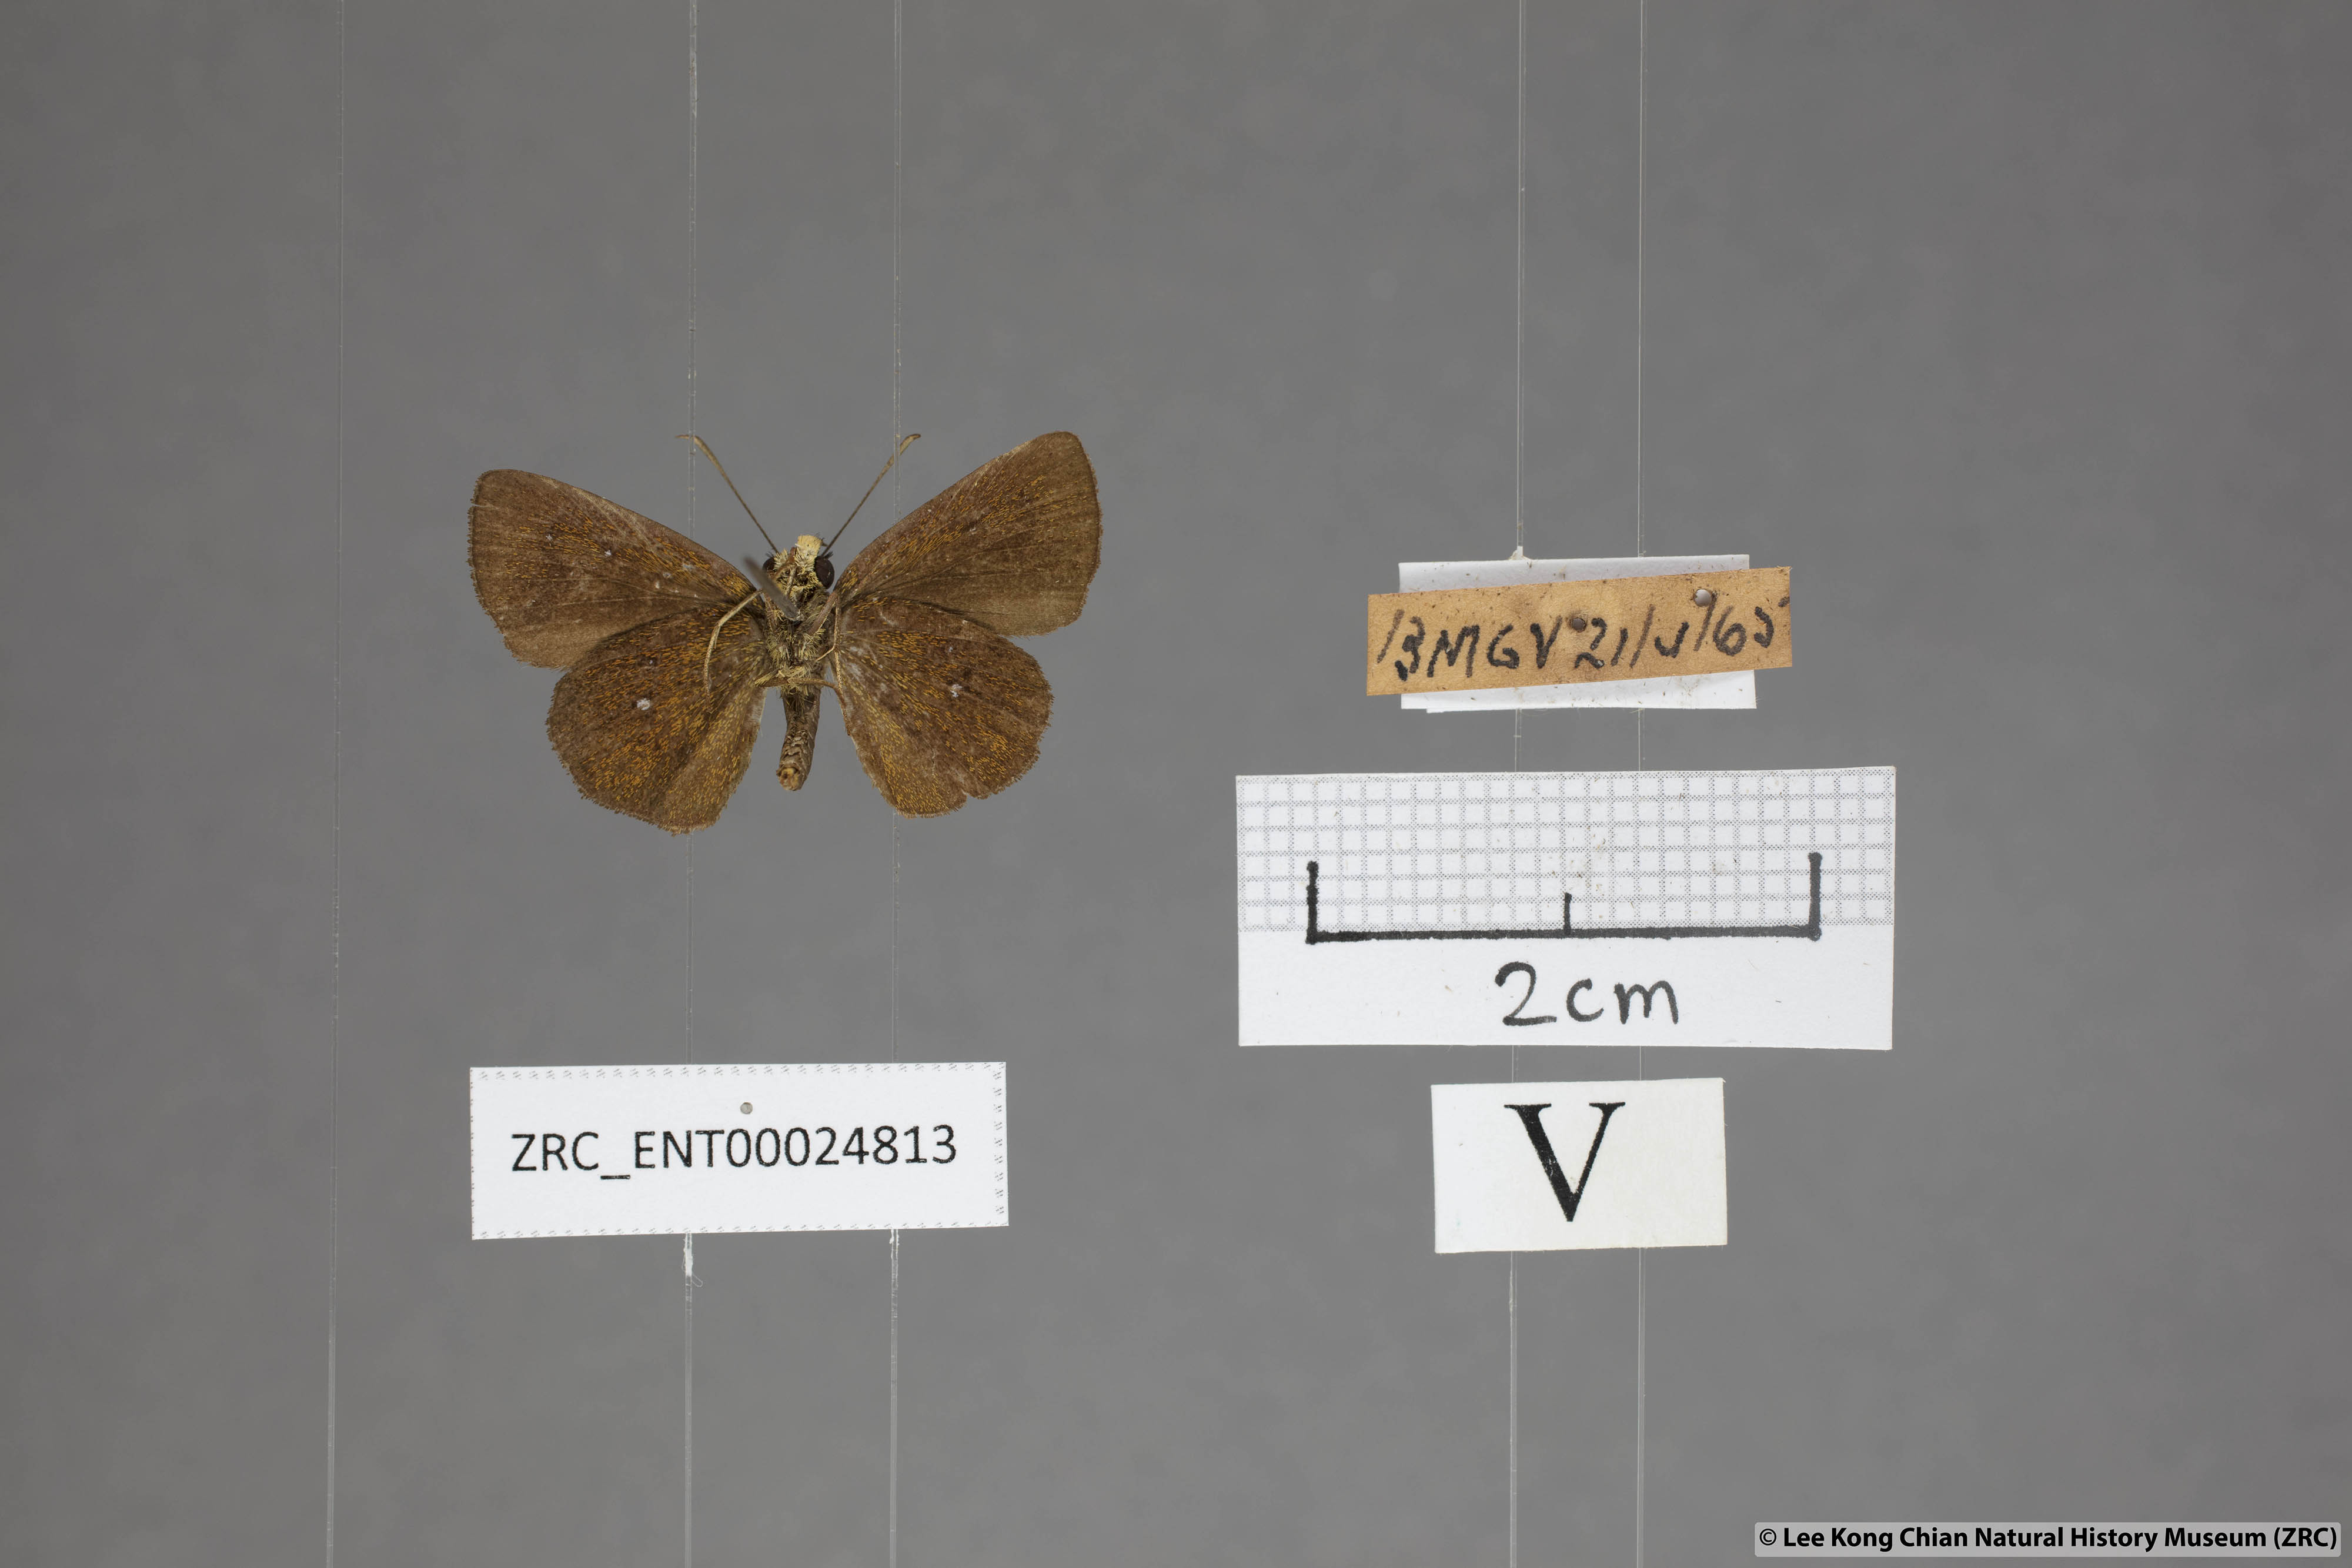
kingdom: Animalia
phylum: Arthropoda
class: Insecta
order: Lepidoptera
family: Hesperiidae
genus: Iambrix
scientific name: Iambrix salsala
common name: Chestnut bob
